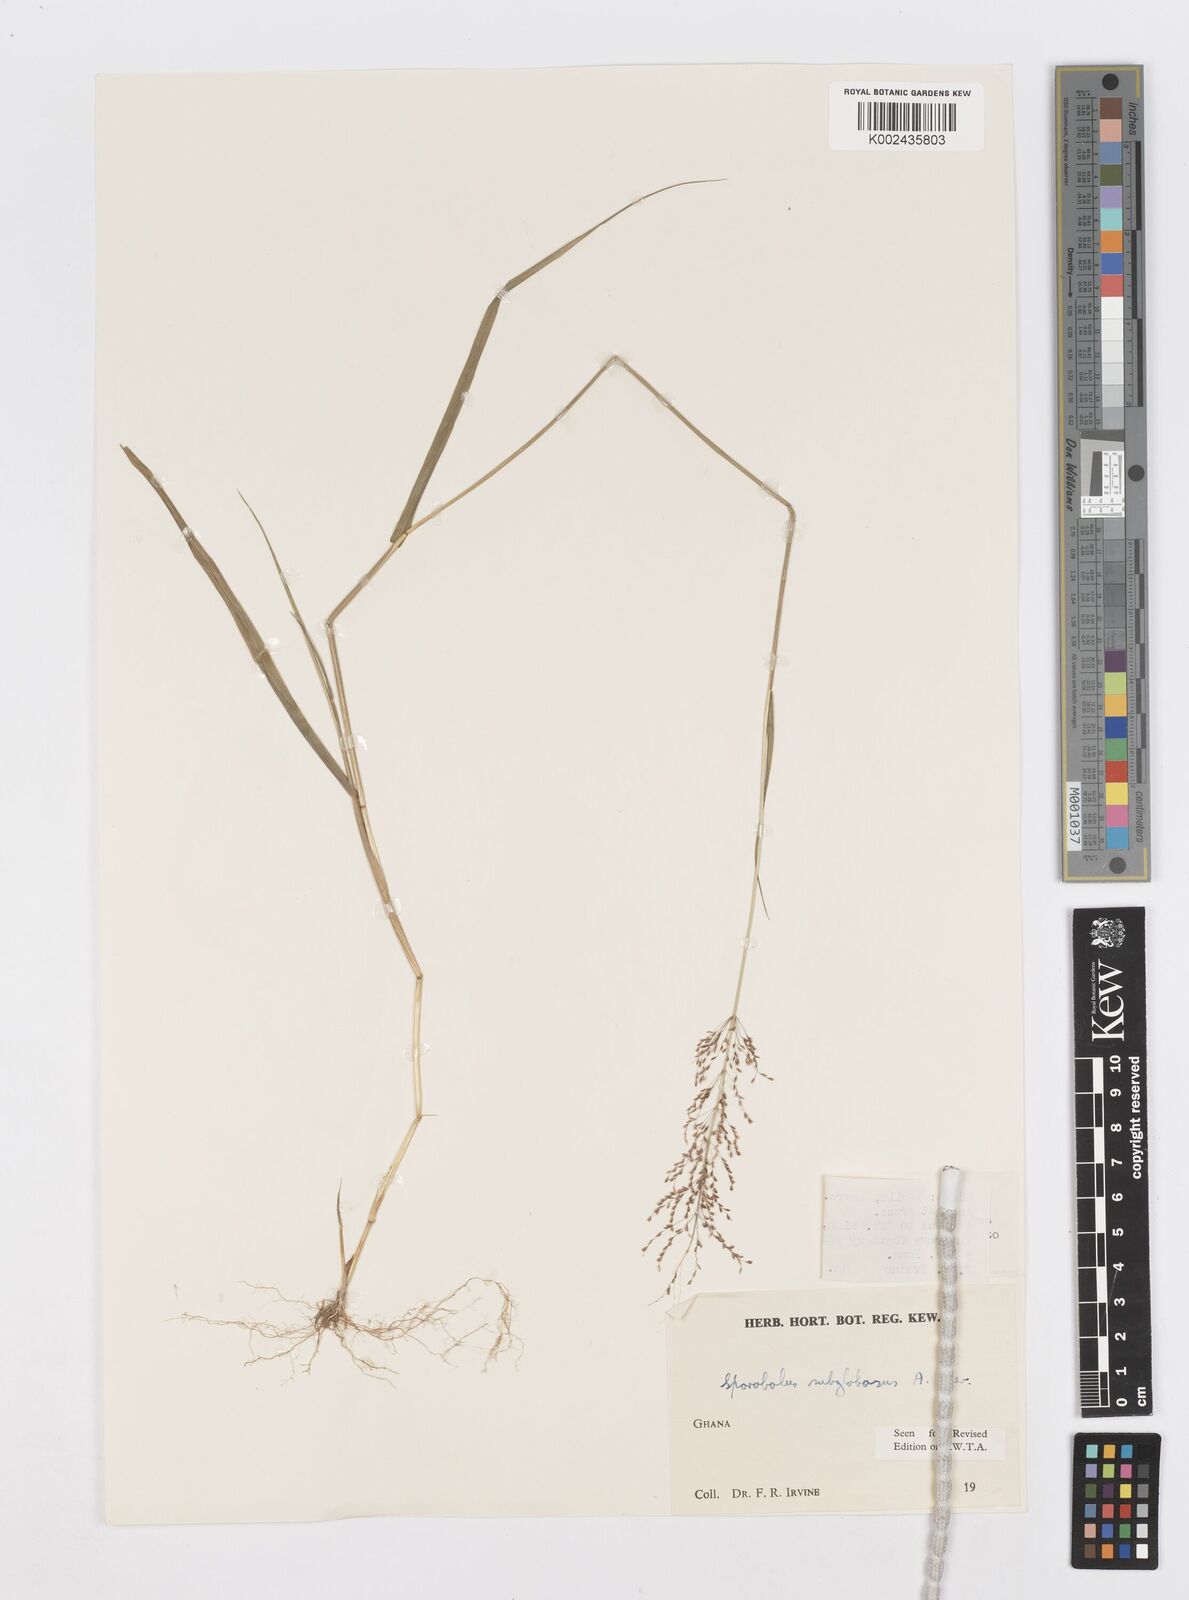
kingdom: Plantae
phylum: Tracheophyta
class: Liliopsida
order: Poales
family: Poaceae
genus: Sporobolus
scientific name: Sporobolus subglobosus
